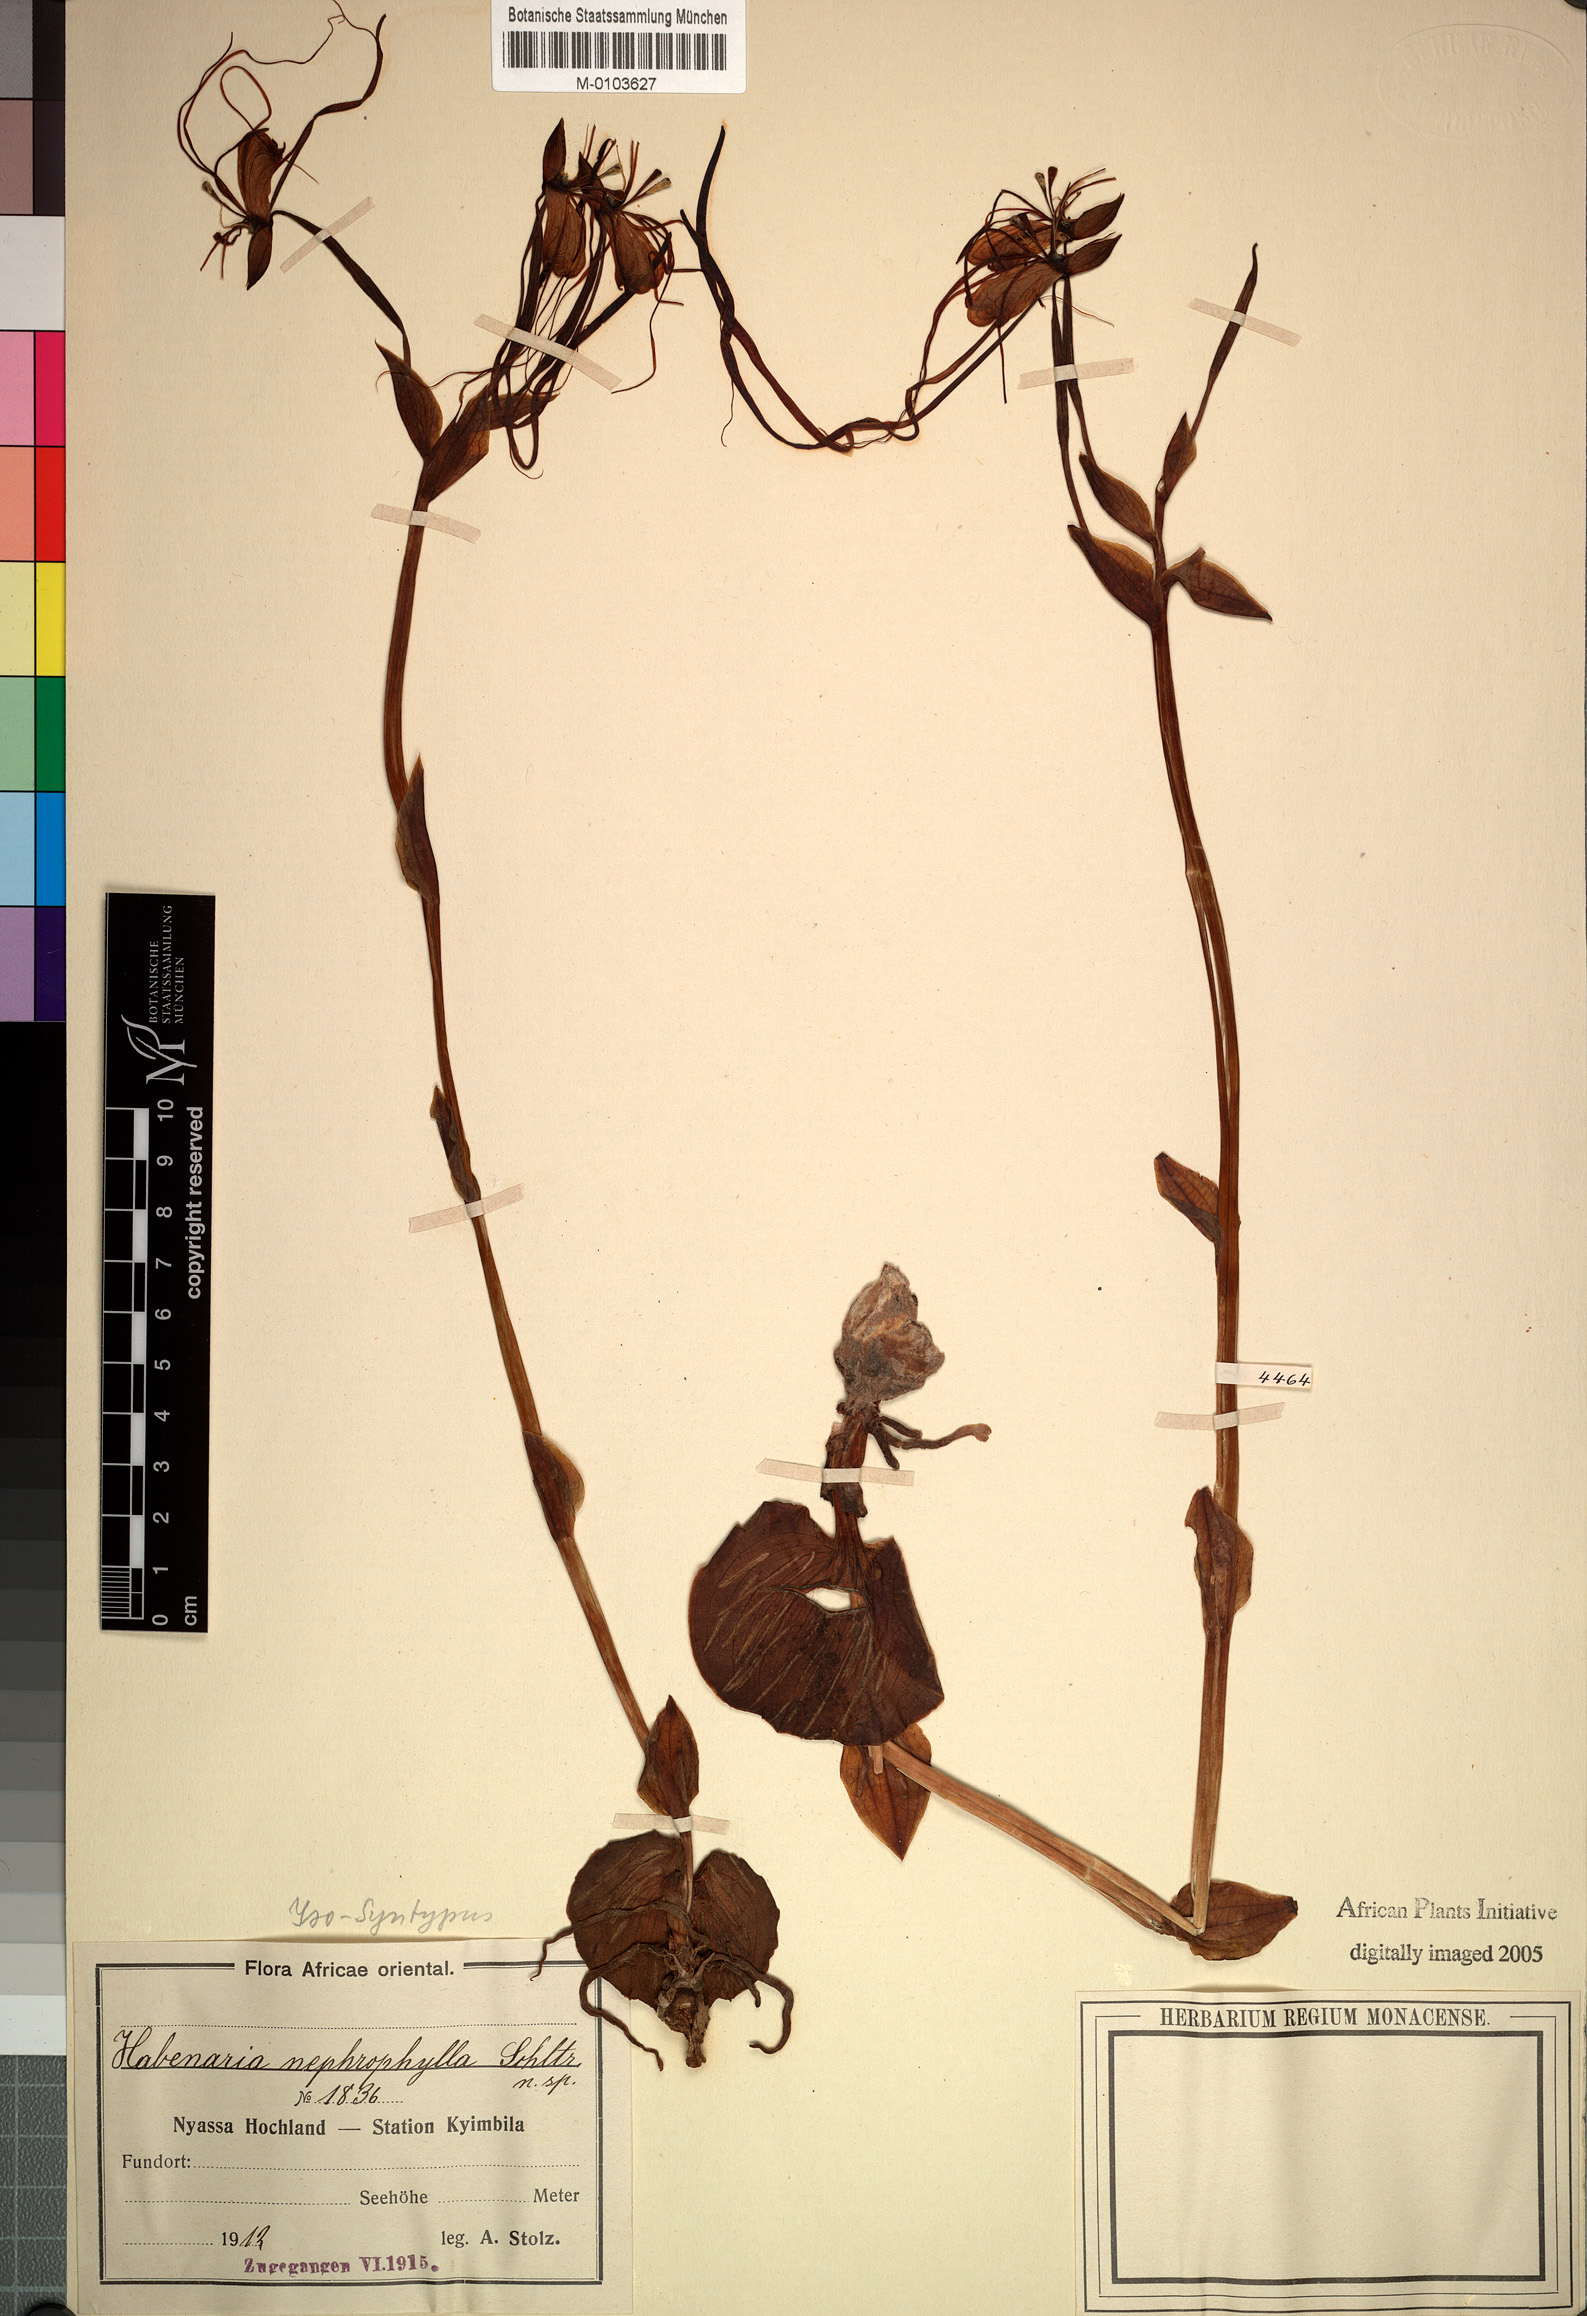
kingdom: Plantae
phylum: Tracheophyta
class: Liliopsida
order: Asparagales
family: Orchidaceae
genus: Habenaria
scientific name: Habenaria rhopalostigma
